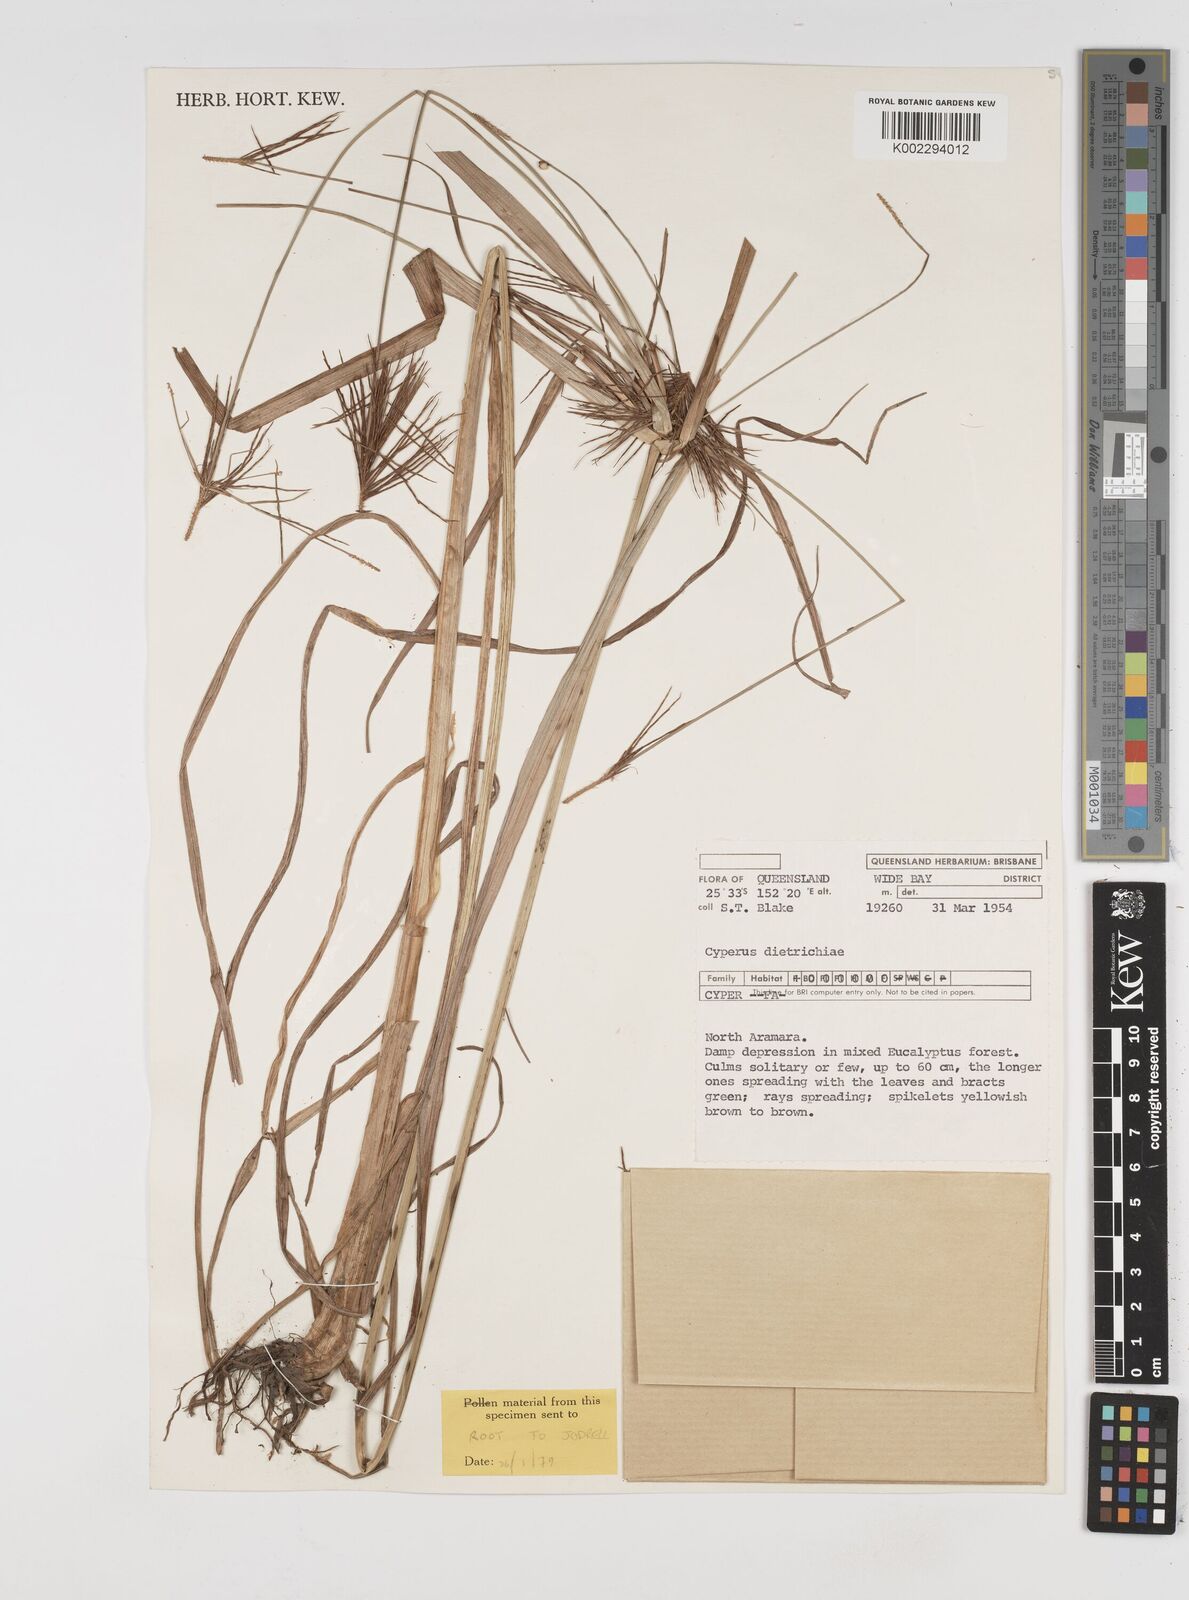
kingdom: Plantae
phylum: Tracheophyta
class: Liliopsida
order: Poales
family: Cyperaceae
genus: Cyperus
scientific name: Cyperus dietrichiae
